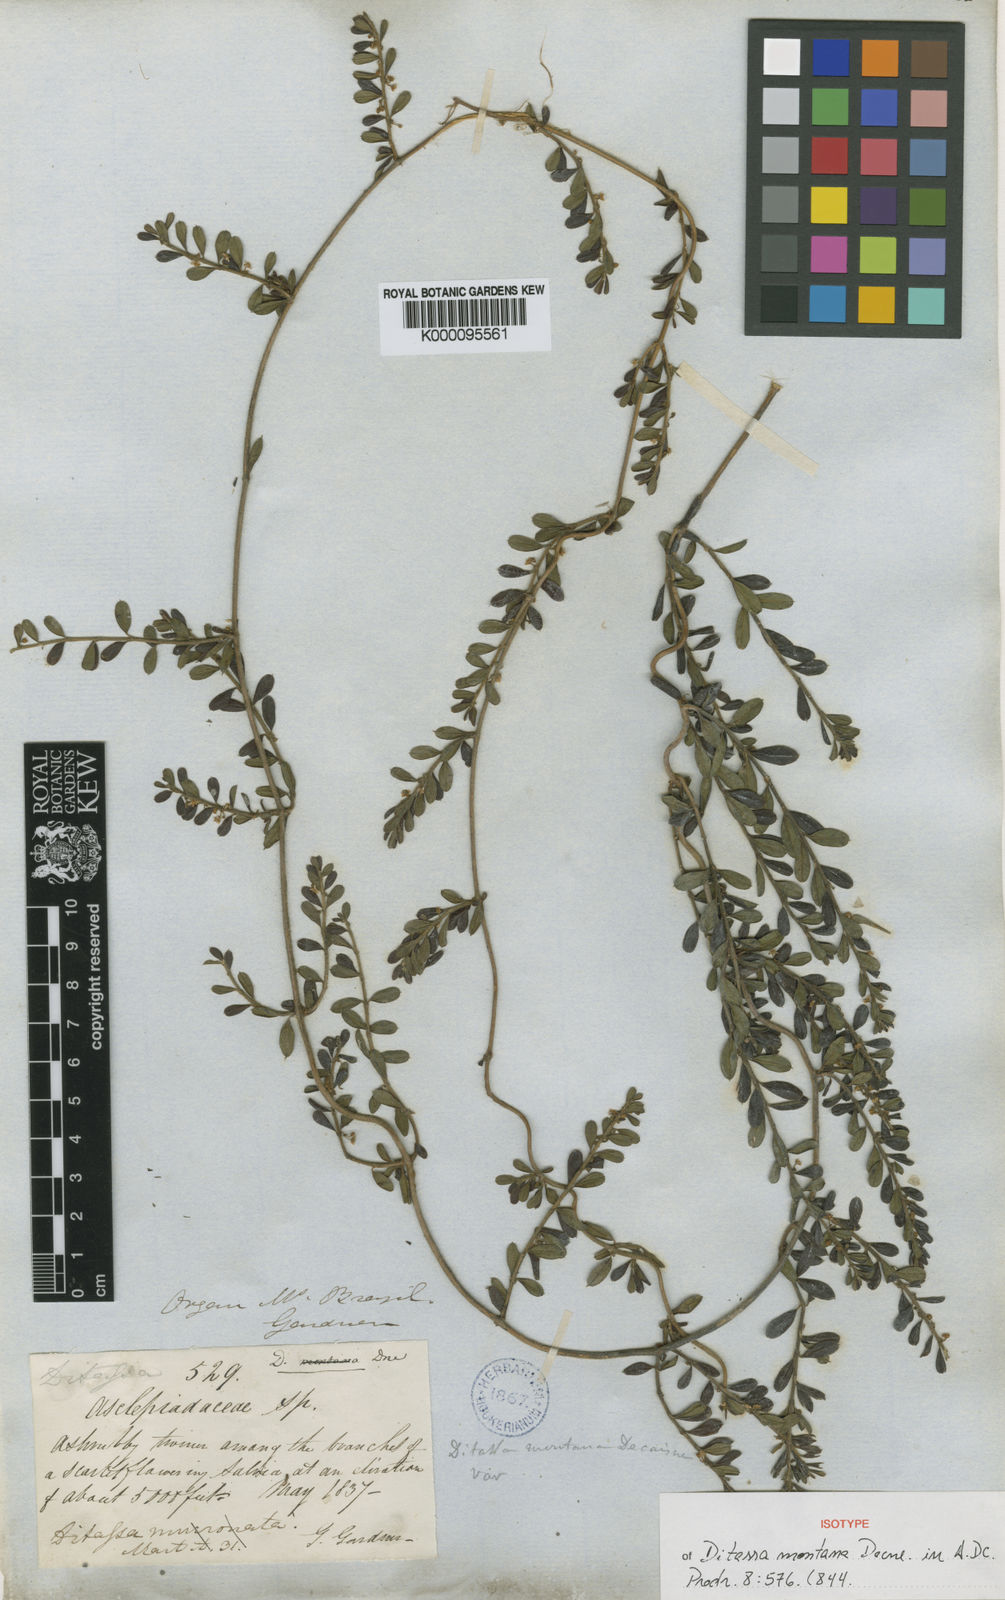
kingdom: Plantae
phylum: Tracheophyta
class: Magnoliopsida
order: Gentianales
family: Apocynaceae
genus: Ditassa
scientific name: Ditassa mucronata
